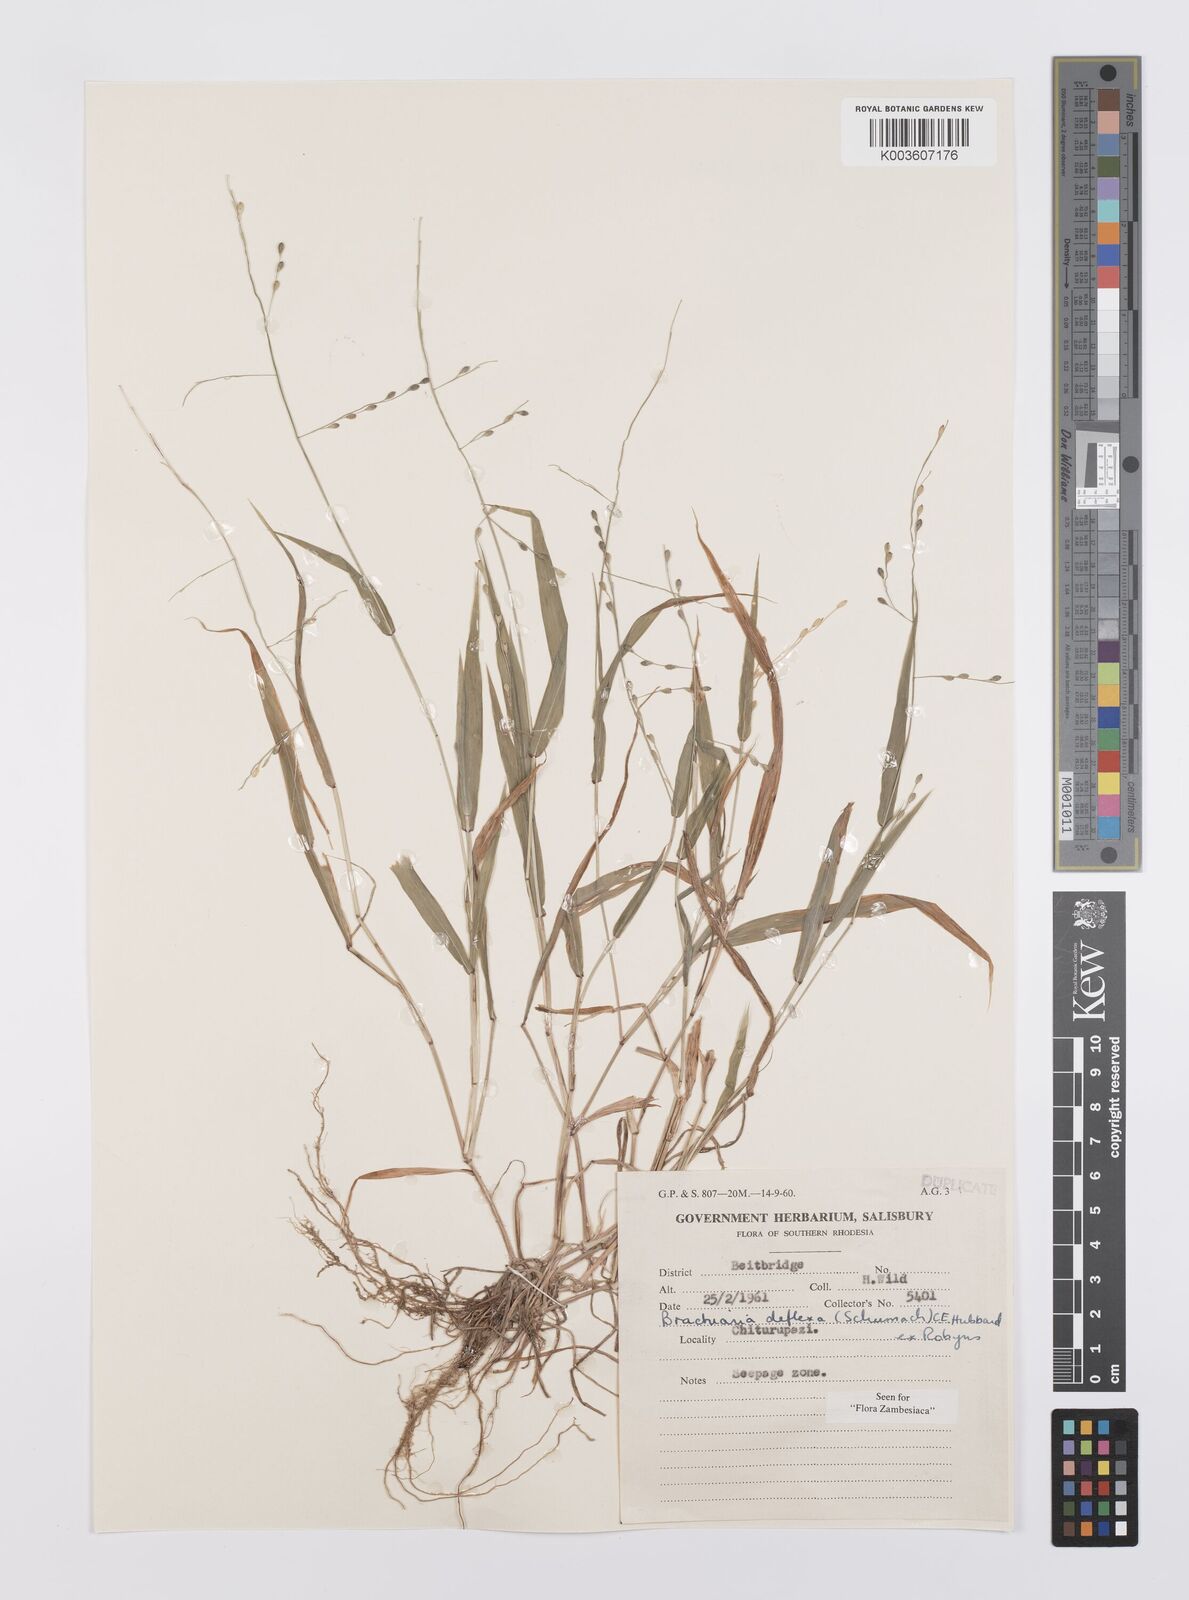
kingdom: Plantae
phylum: Tracheophyta
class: Liliopsida
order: Poales
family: Poaceae
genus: Urochloa
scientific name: Urochloa deflexa
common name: Guinea millet
